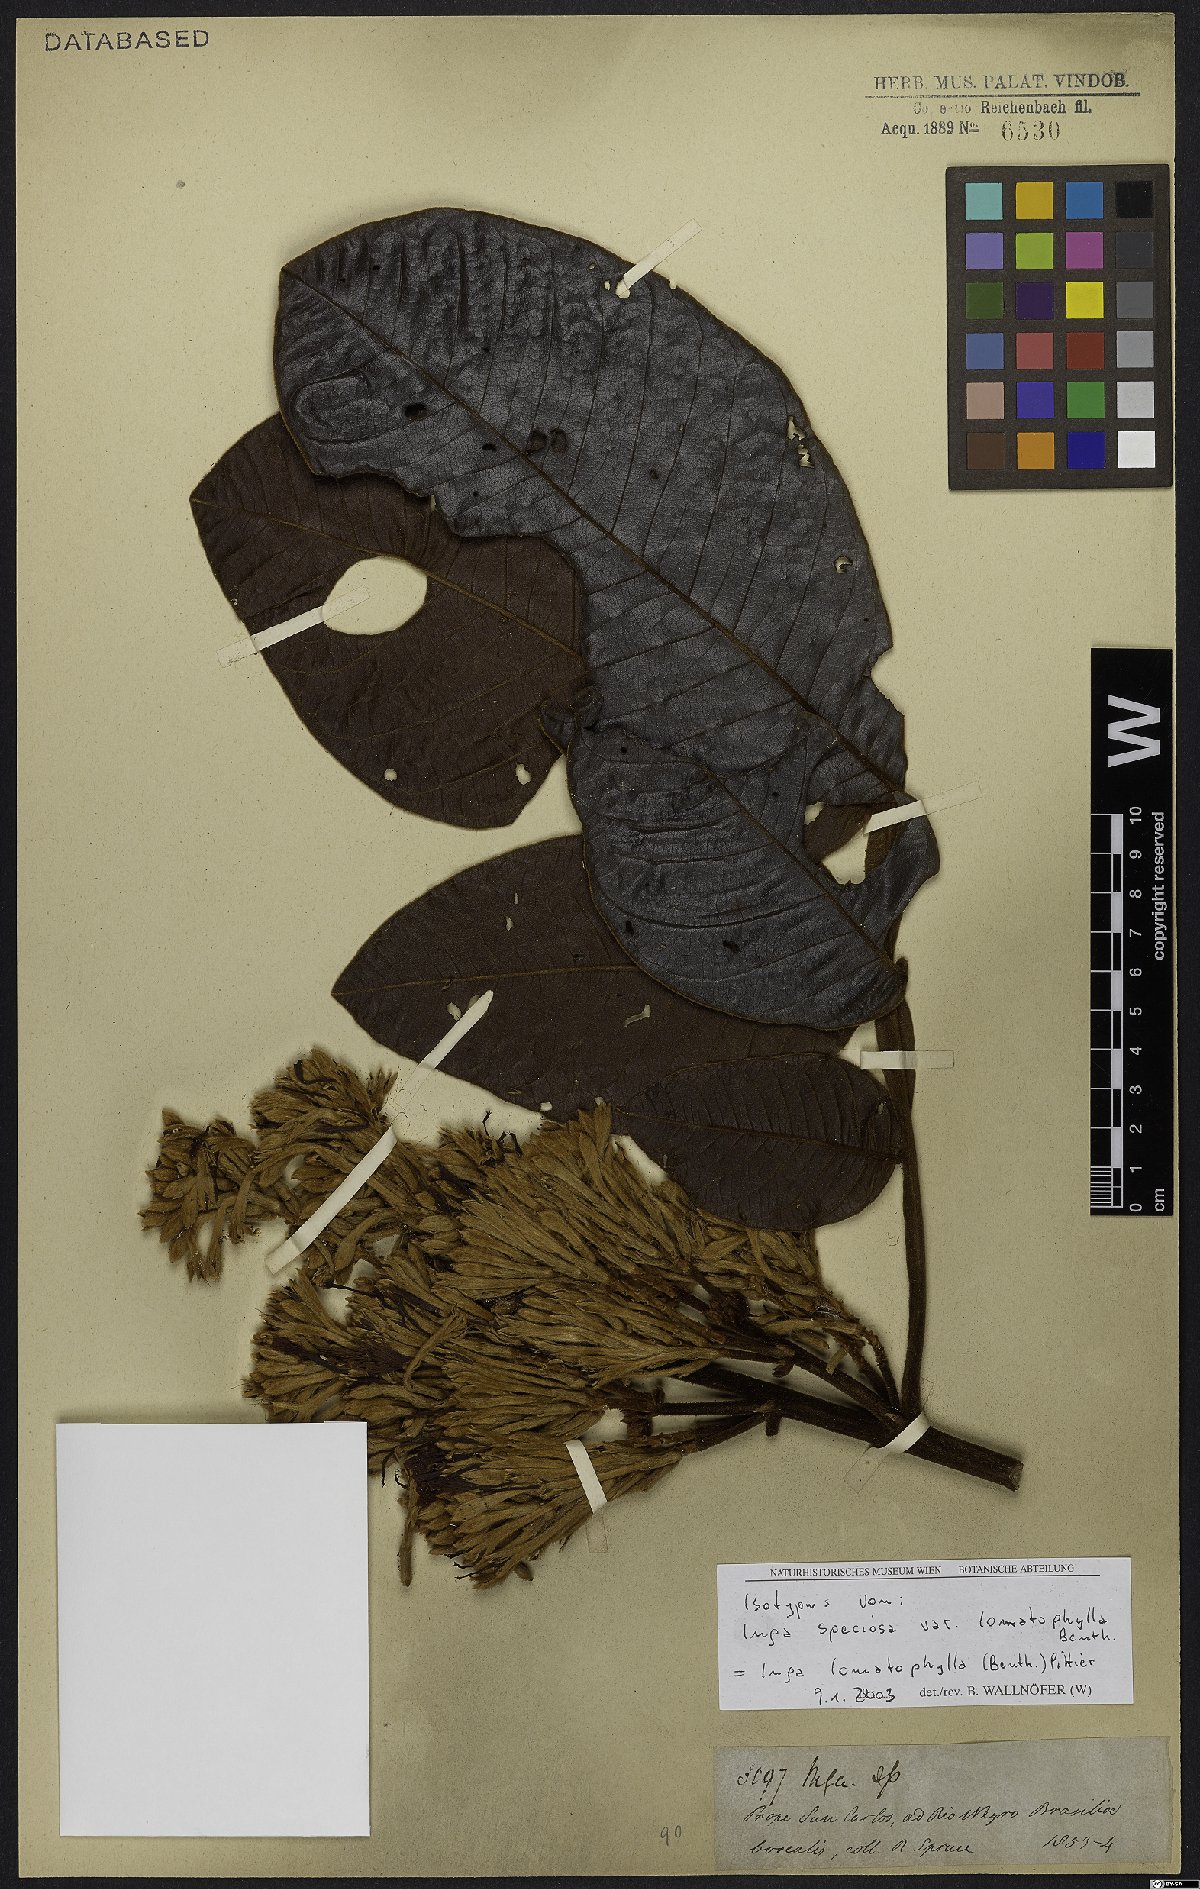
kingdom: Plantae
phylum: Tracheophyta
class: Magnoliopsida
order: Fabales
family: Fabaceae
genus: Inga
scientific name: Inga lomatophylla
